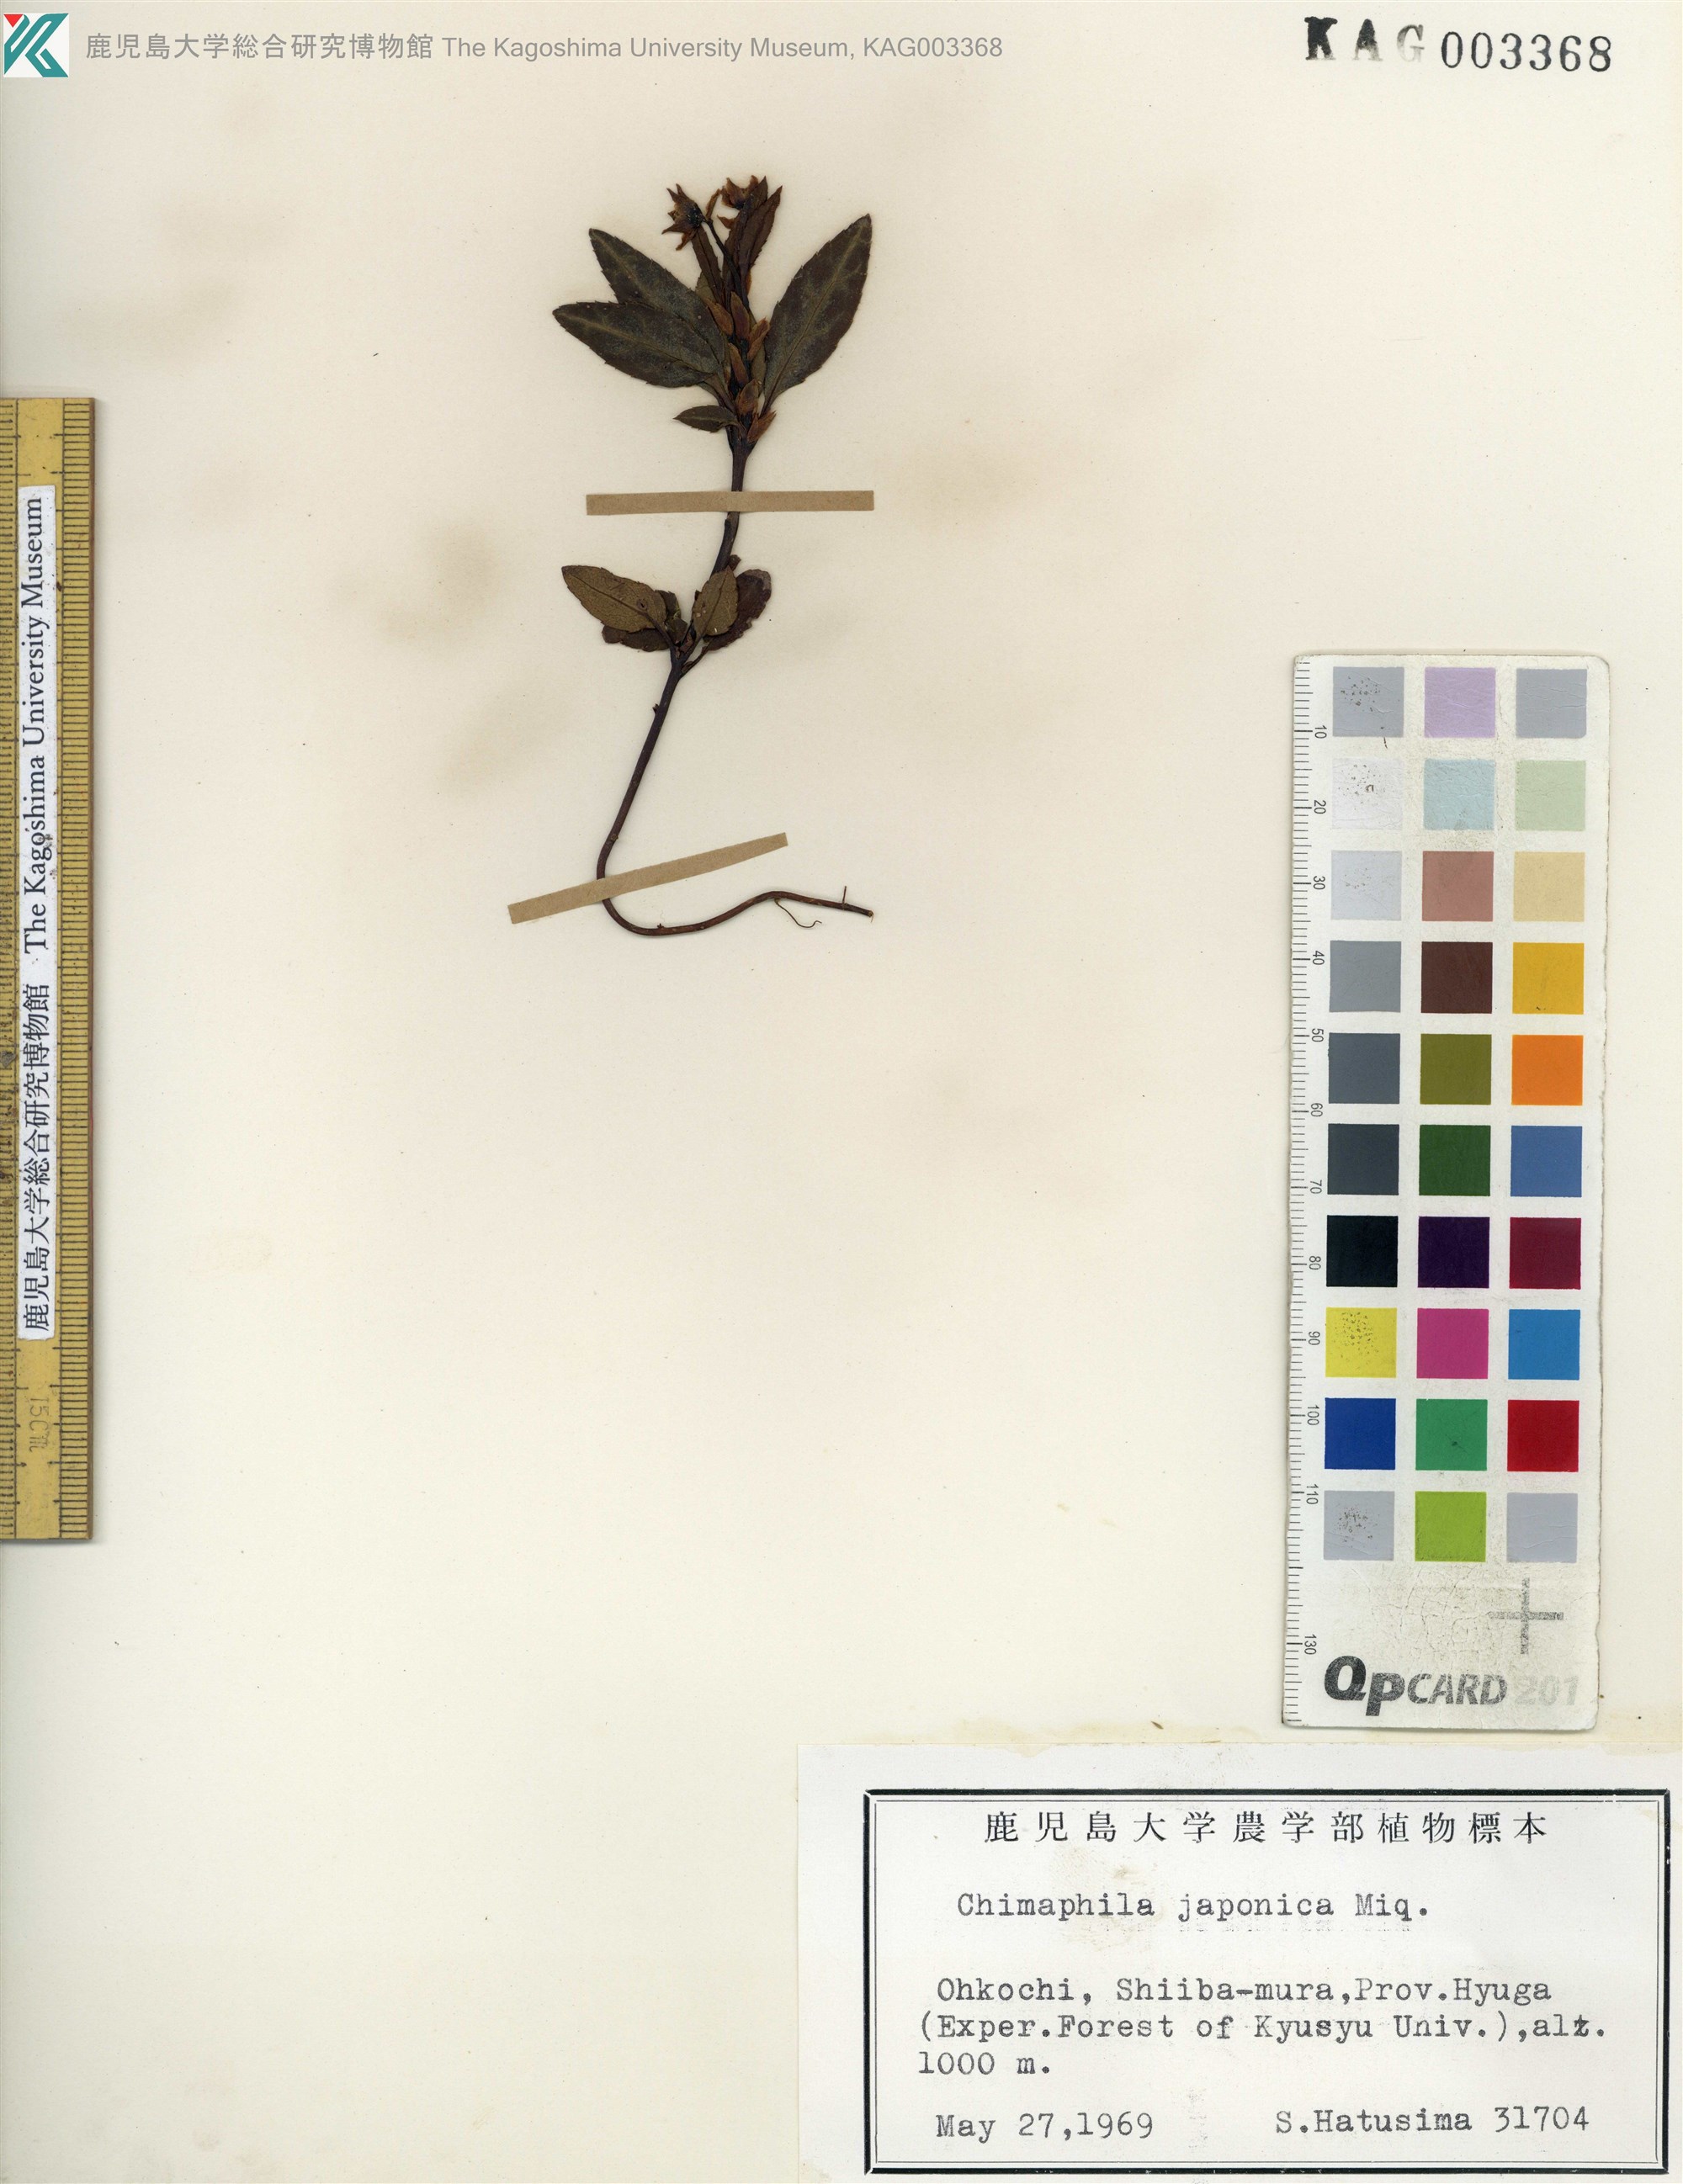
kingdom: Plantae
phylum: Tracheophyta
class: Magnoliopsida
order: Ericales
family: Ericaceae
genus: Chimaphila
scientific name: Chimaphila japonica
